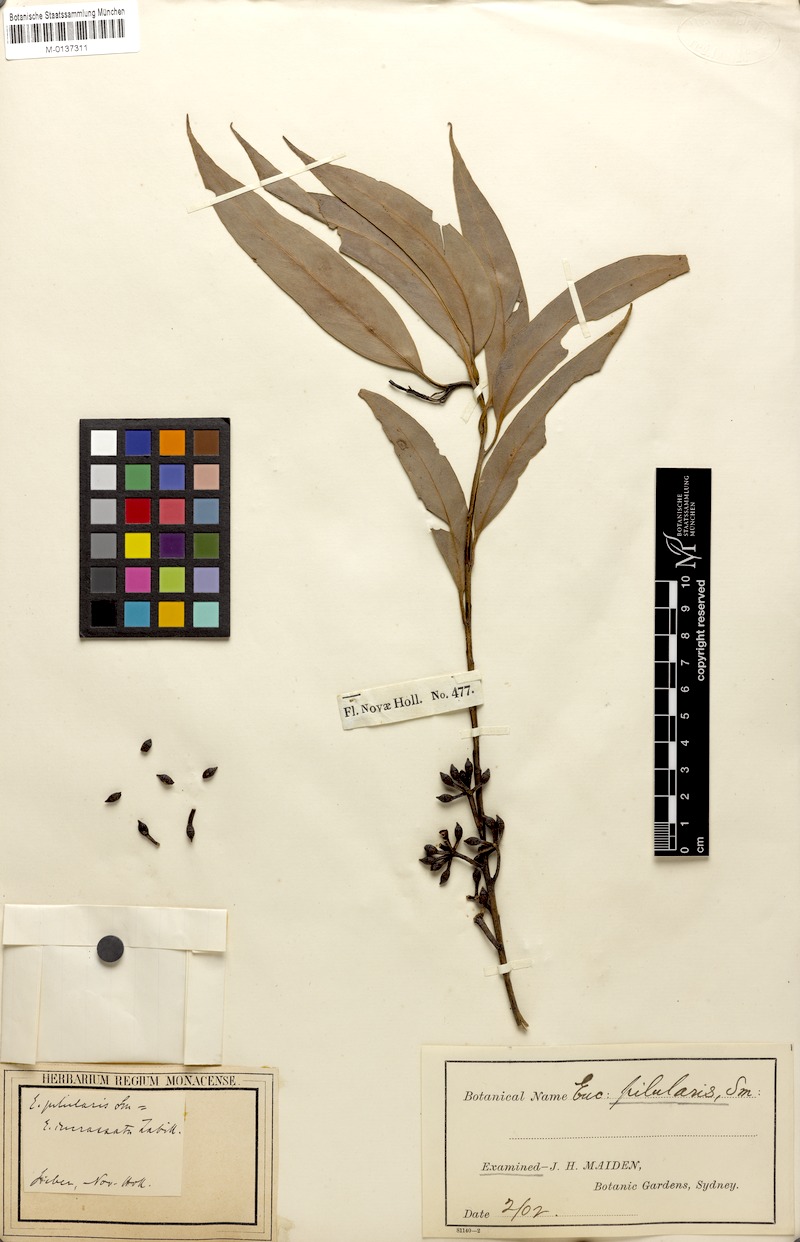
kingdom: Plantae
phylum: Tracheophyta
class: Magnoliopsida
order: Myrtales
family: Myrtaceae
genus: Eucalyptus
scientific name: Eucalyptus incrassata
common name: Ridge-fruit mallee
